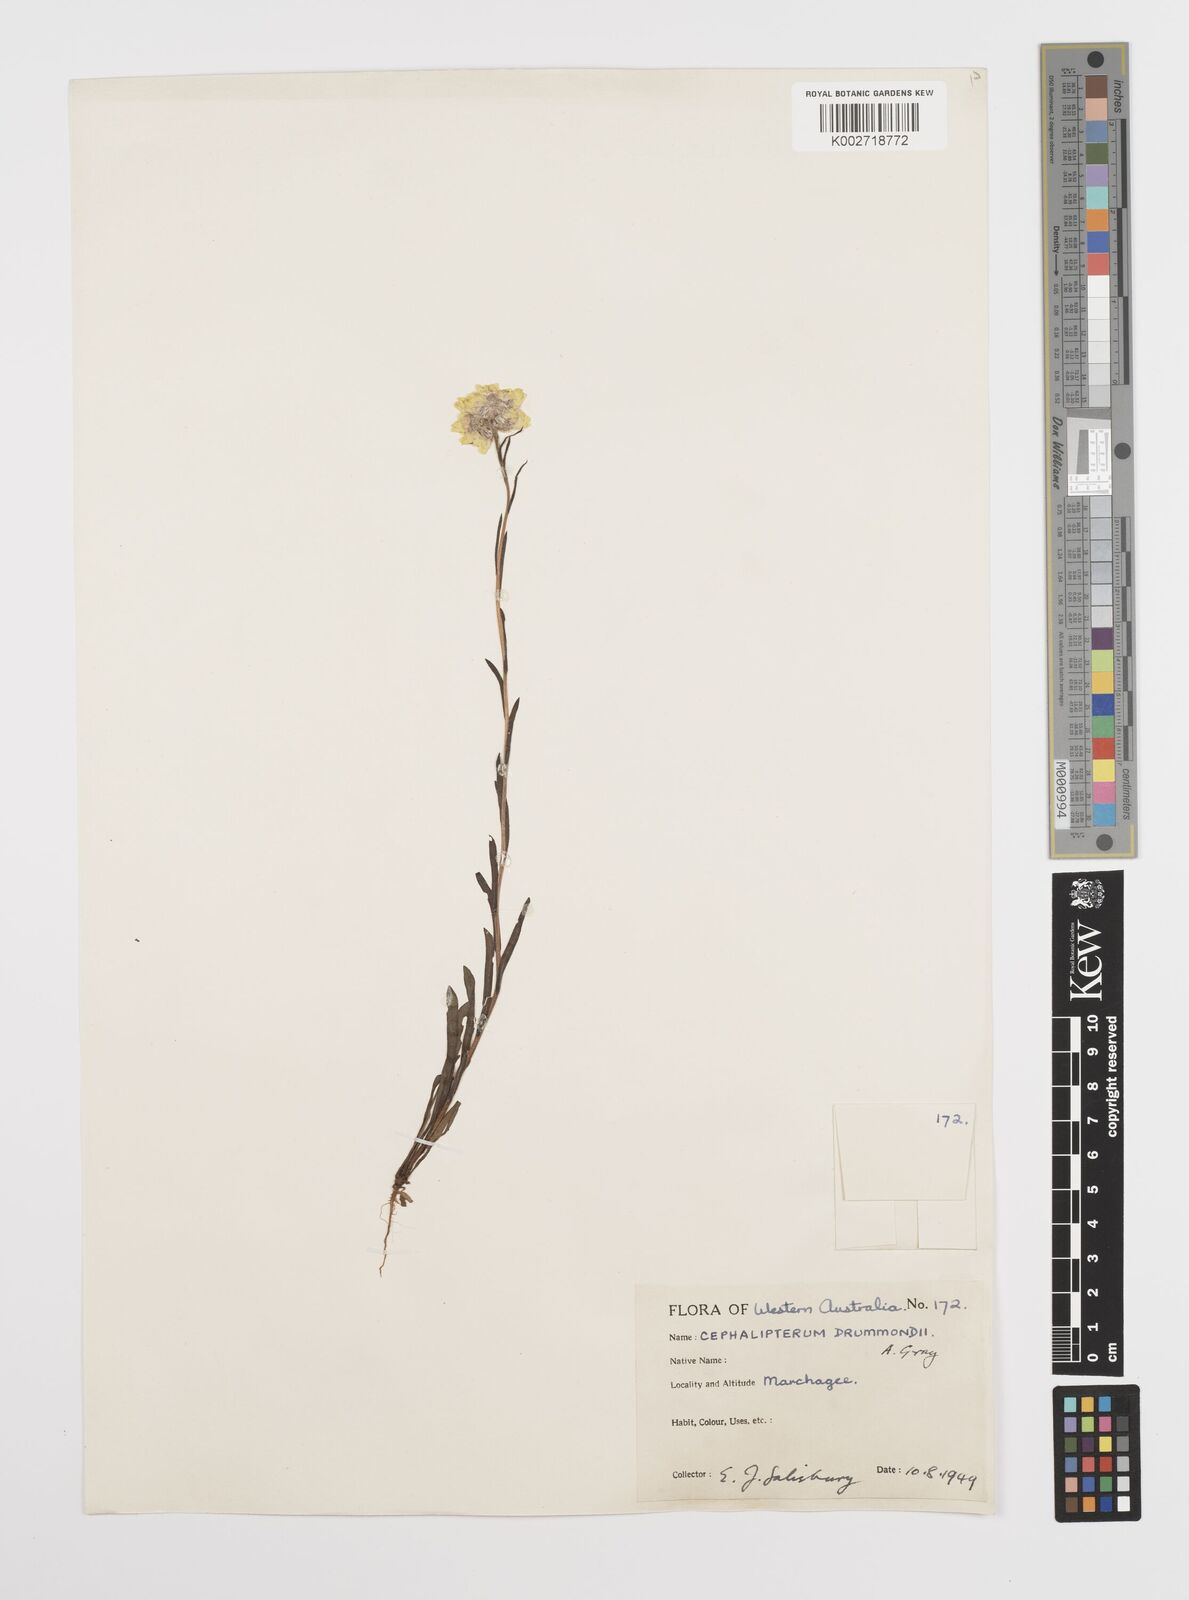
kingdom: Plantae
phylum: Tracheophyta
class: Magnoliopsida
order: Asterales
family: Asteraceae
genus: Cephalipterum
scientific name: Cephalipterum
